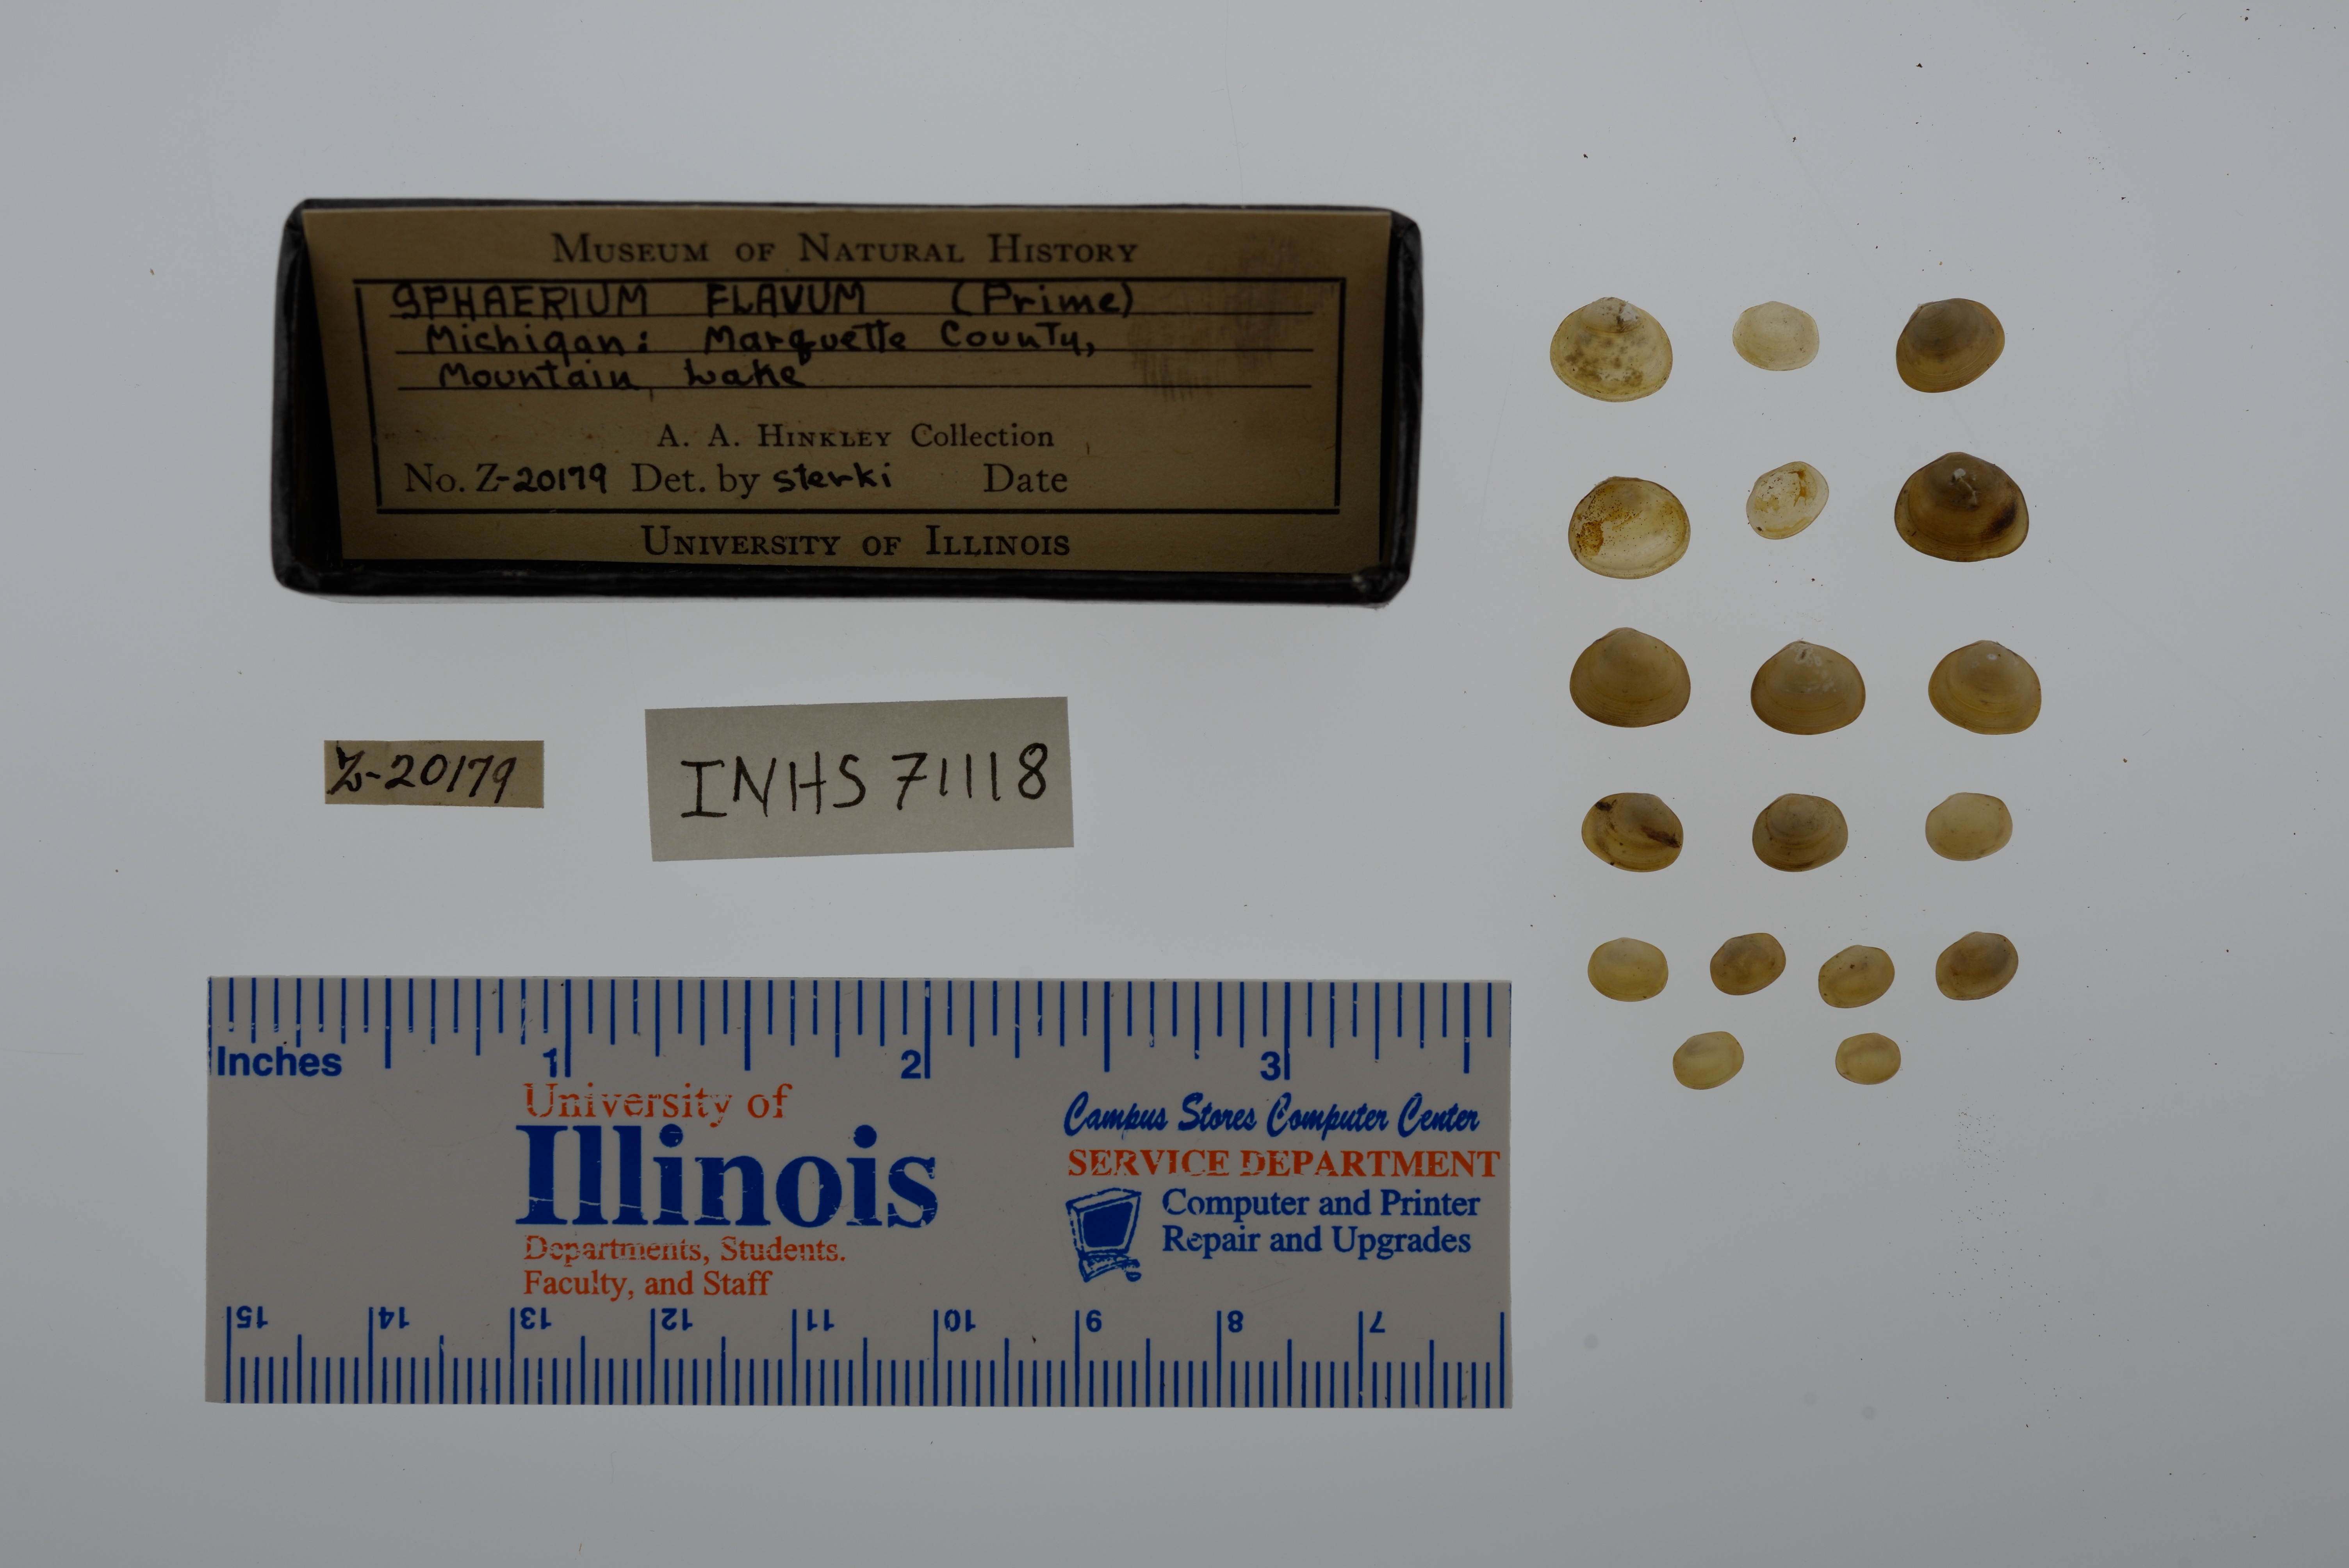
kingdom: Animalia
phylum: Mollusca
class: Bivalvia
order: Sphaeriida
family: Sphaeriidae
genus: Sphaerium
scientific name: Sphaerium striatinum
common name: Striated fingernailclam
